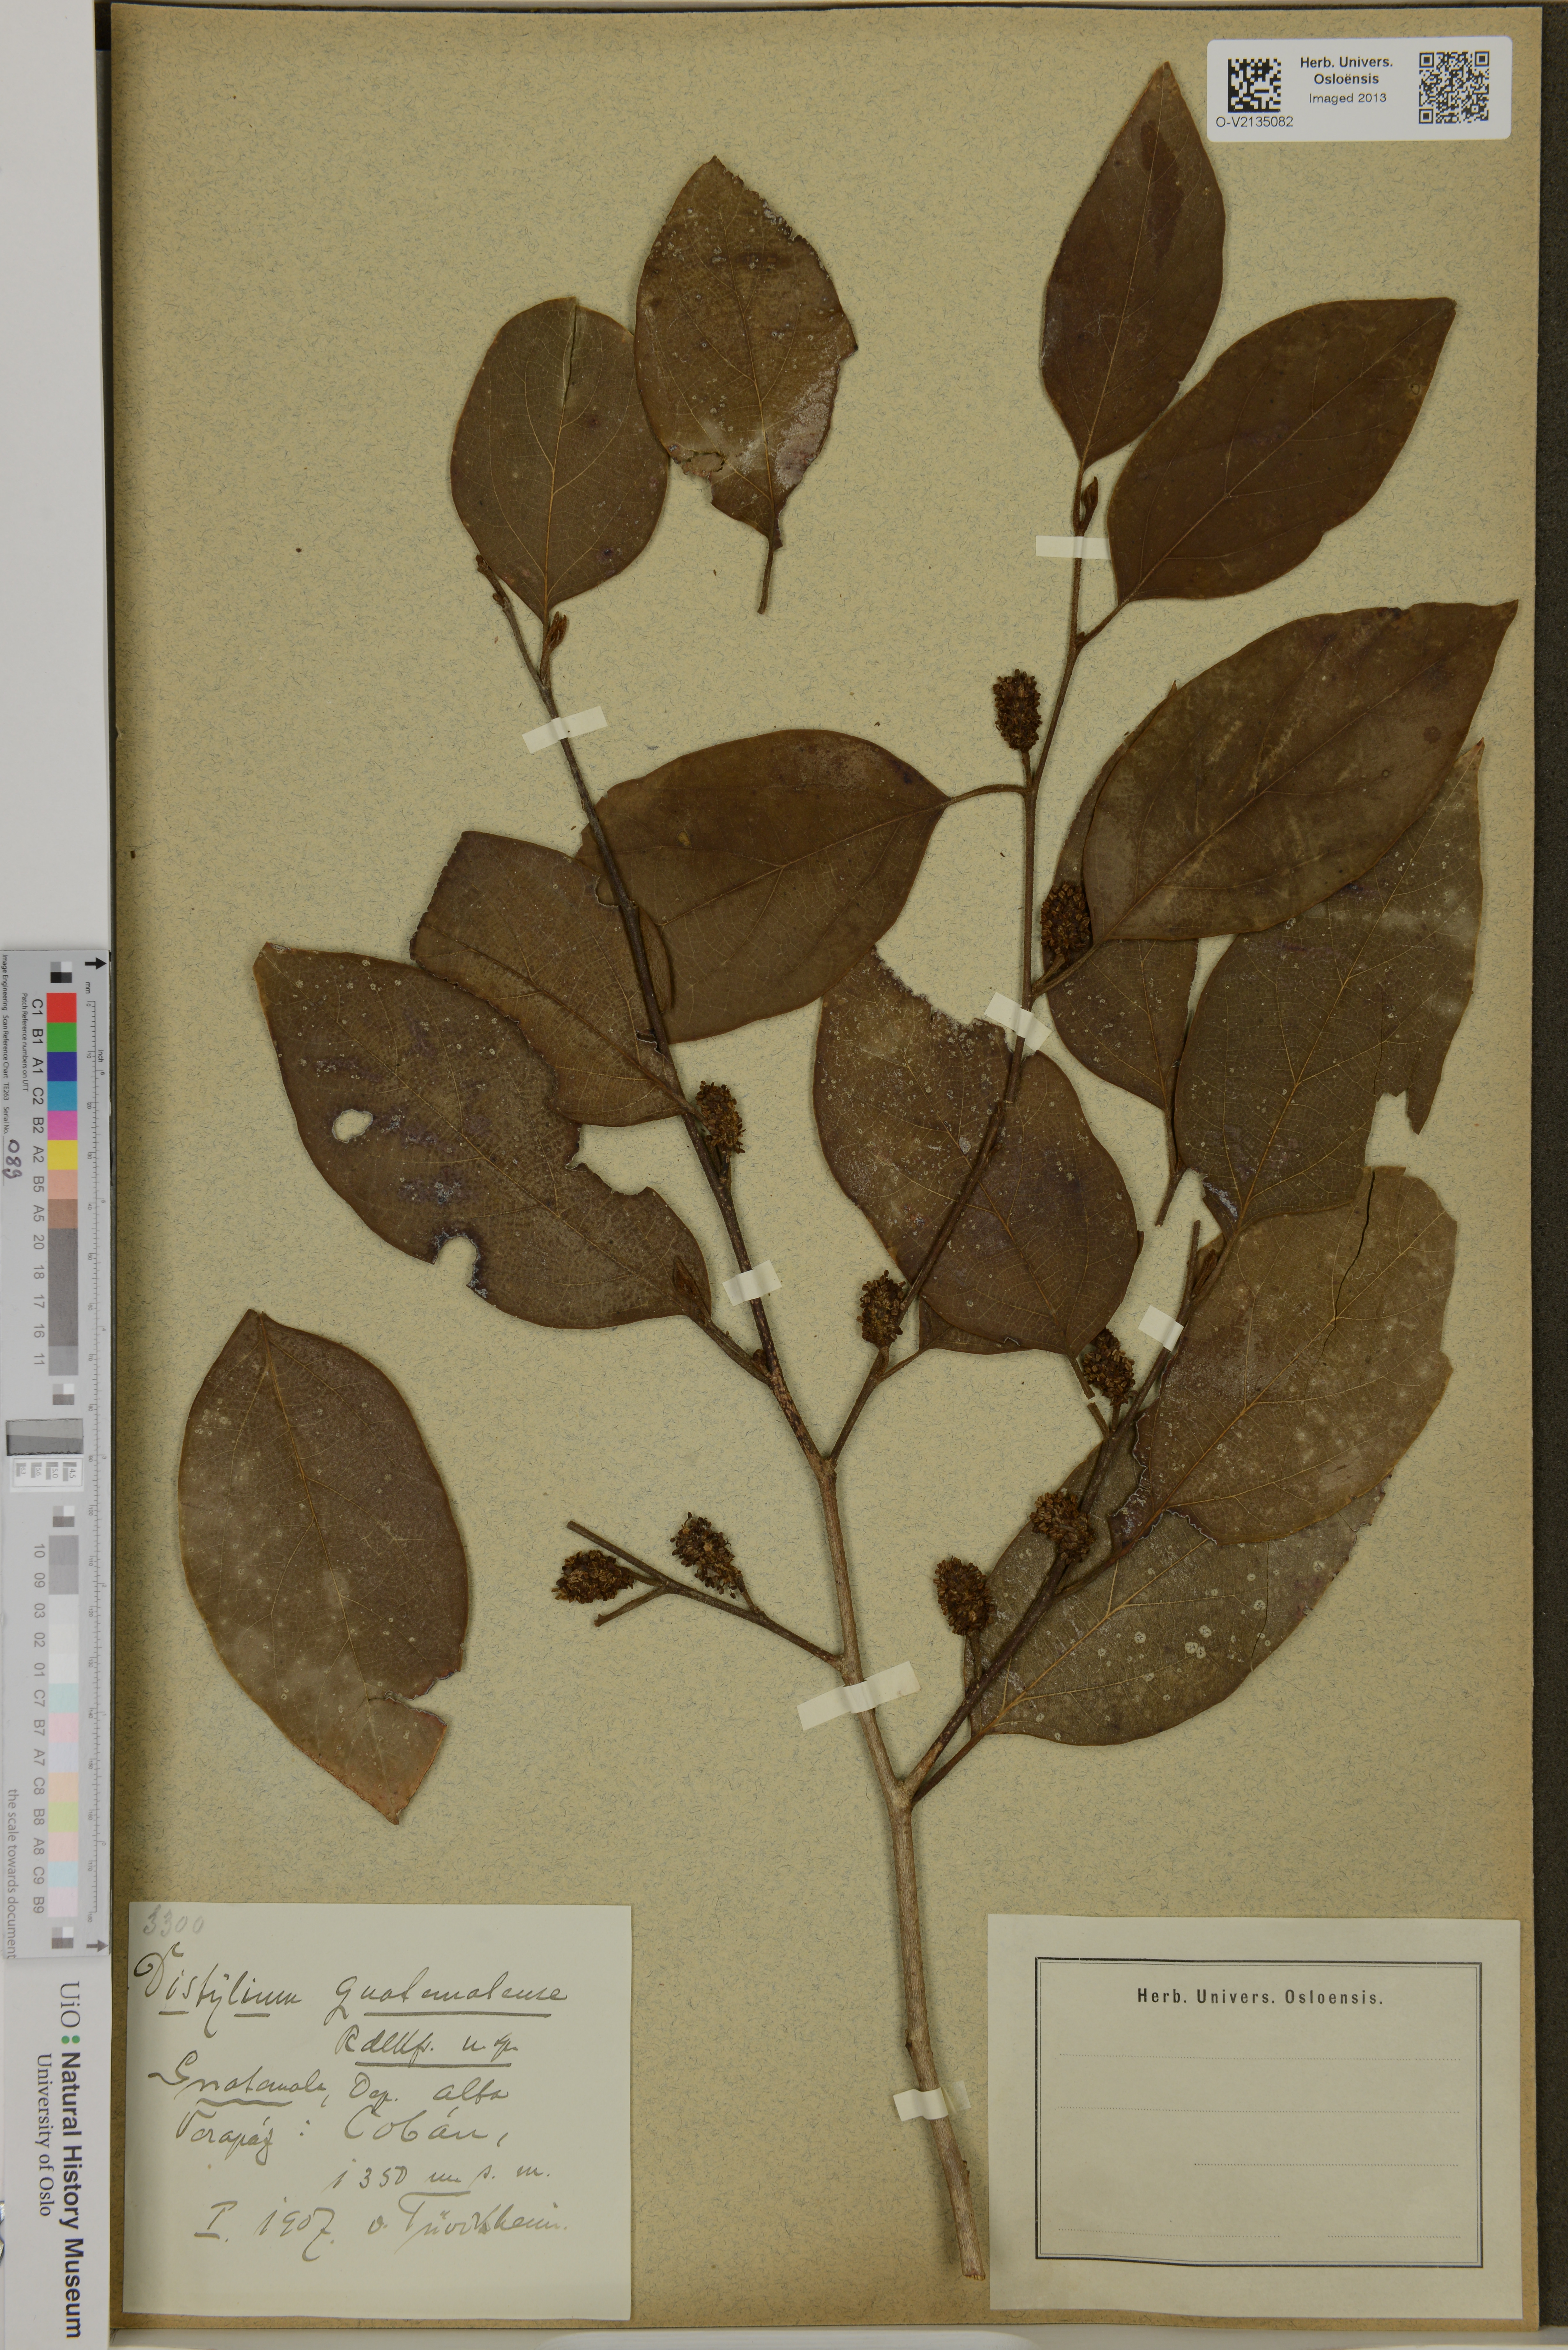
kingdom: Plantae
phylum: Tracheophyta
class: Magnoliopsida
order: Saxifragales
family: Hamamelidaceae
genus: Molinadendron
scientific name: Molinadendron guatemalense
